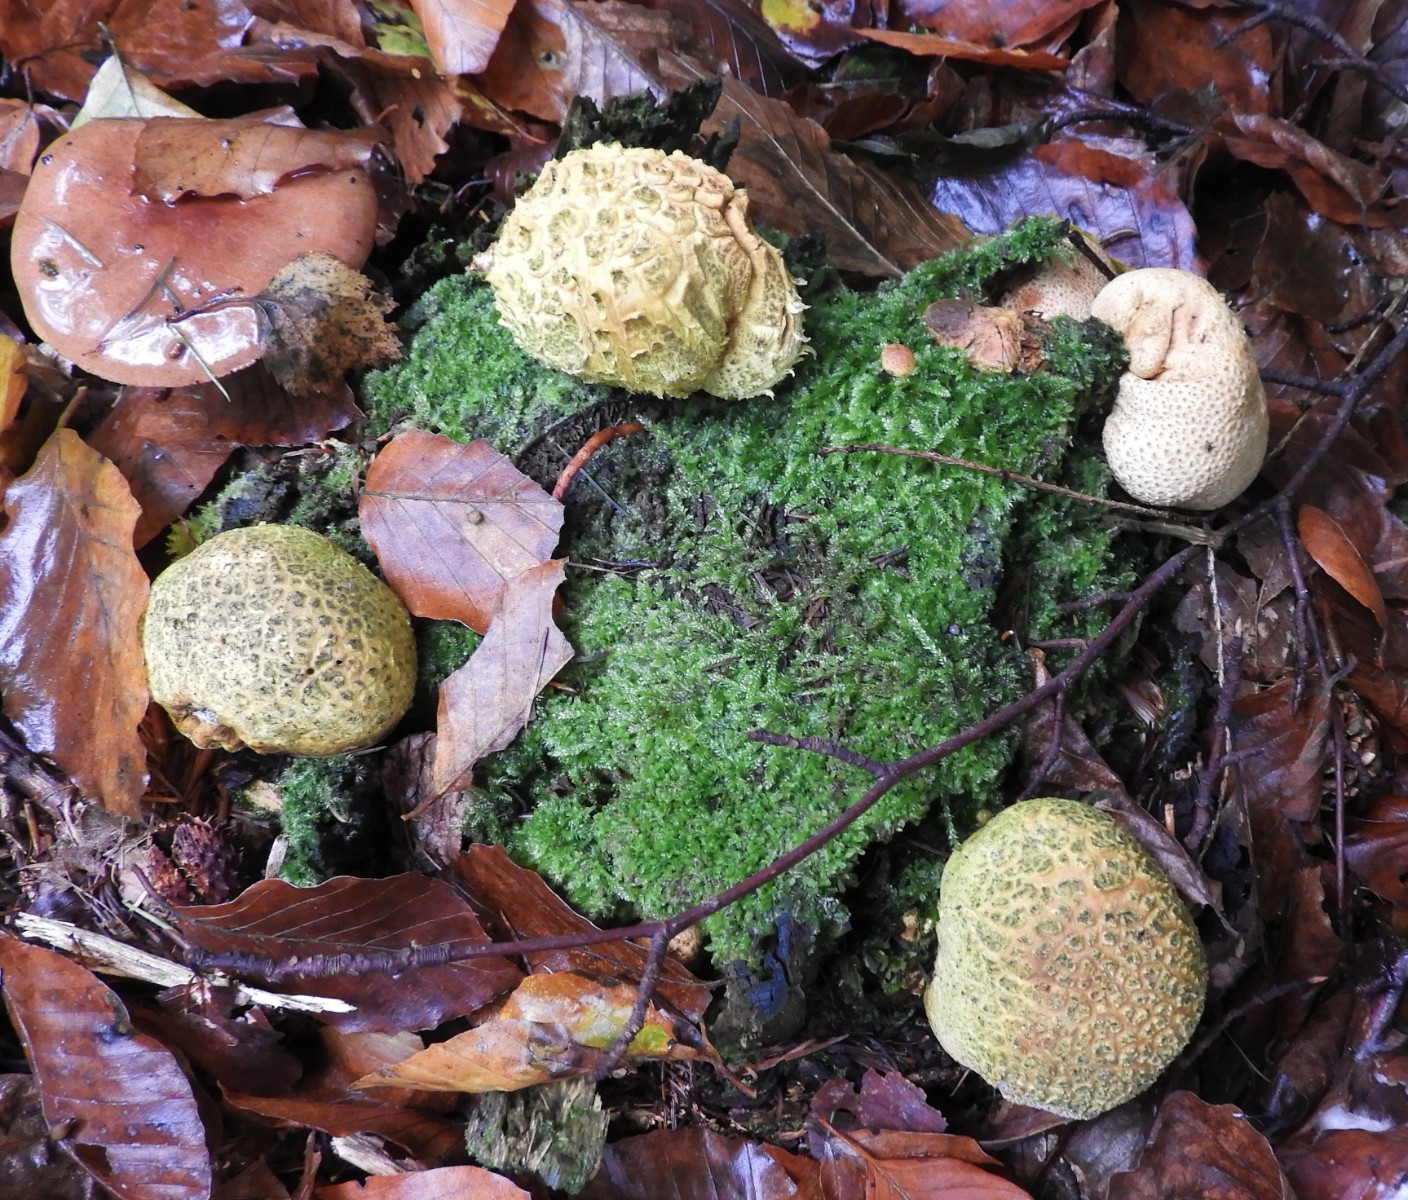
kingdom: Fungi
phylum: Basidiomycota
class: Agaricomycetes
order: Boletales
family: Sclerodermataceae
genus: Scleroderma
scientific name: Scleroderma citrinum
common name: almindelig bruskbold
